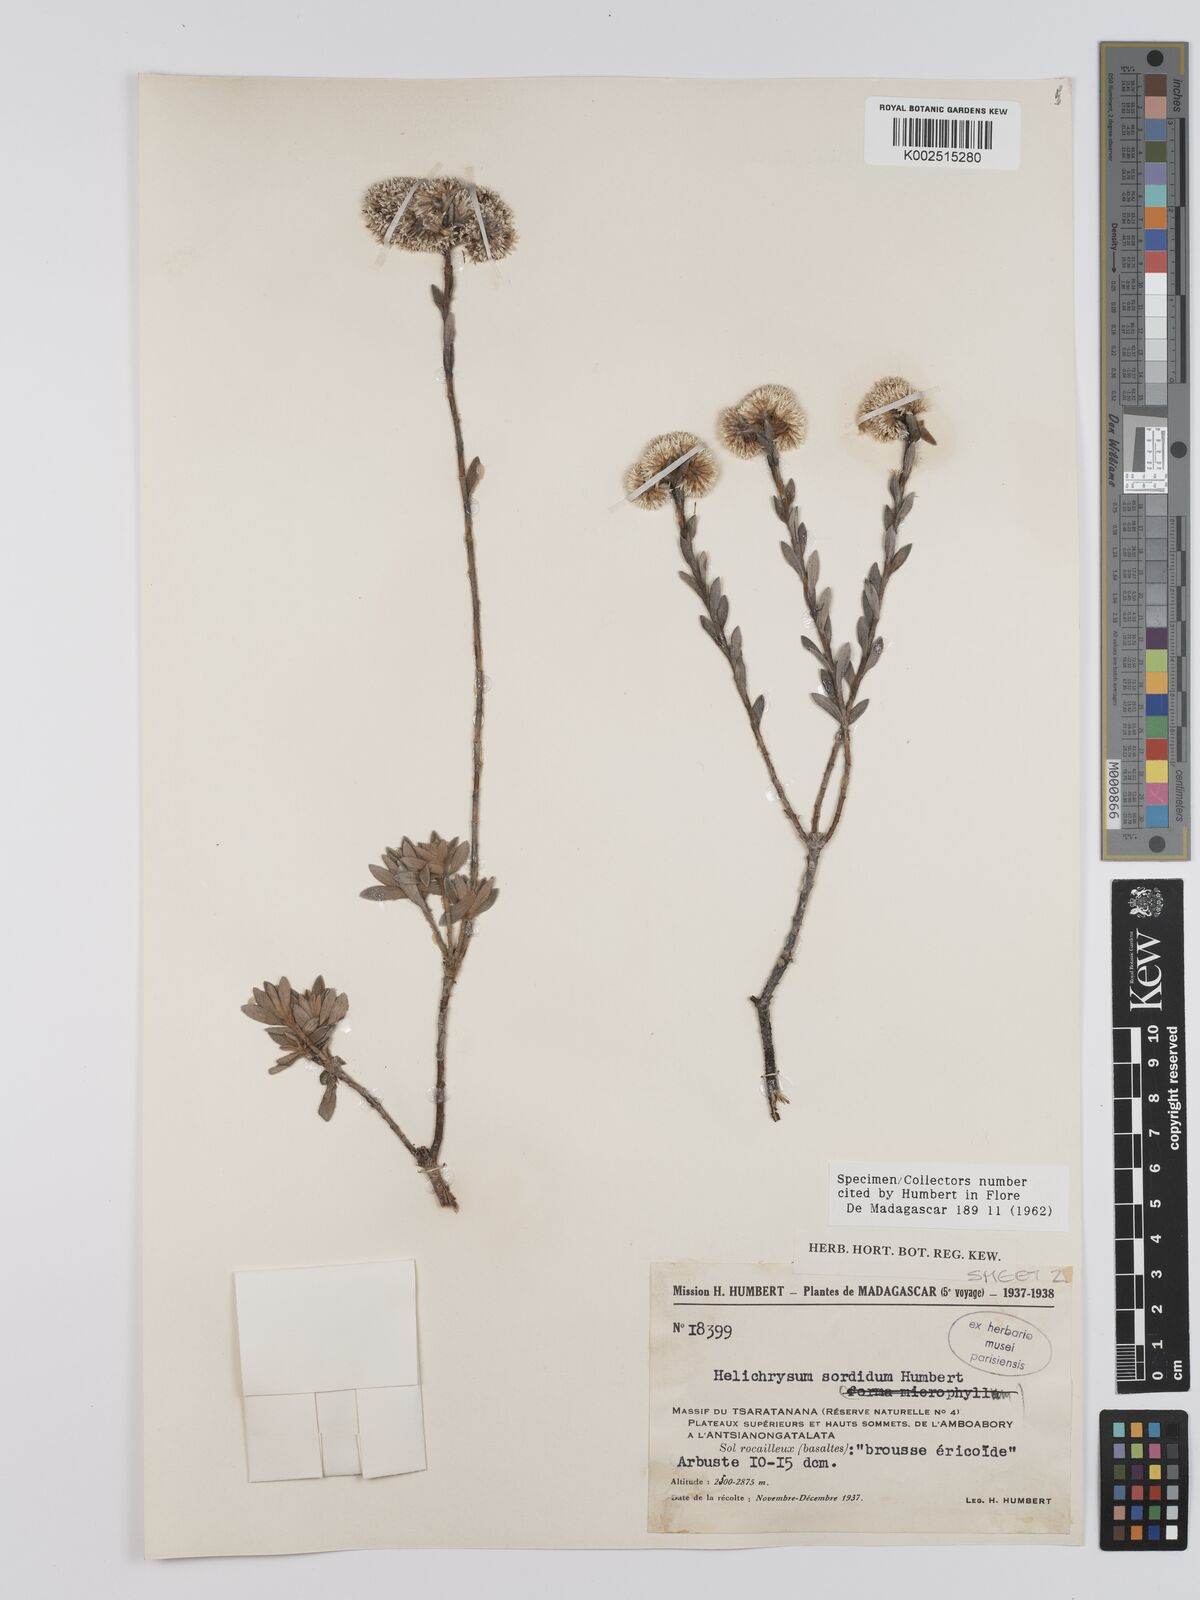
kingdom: Plantae
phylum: Tracheophyta
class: Magnoliopsida
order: Asterales
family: Asteraceae
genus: Helichrysum
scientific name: Helichrysum sordidum
